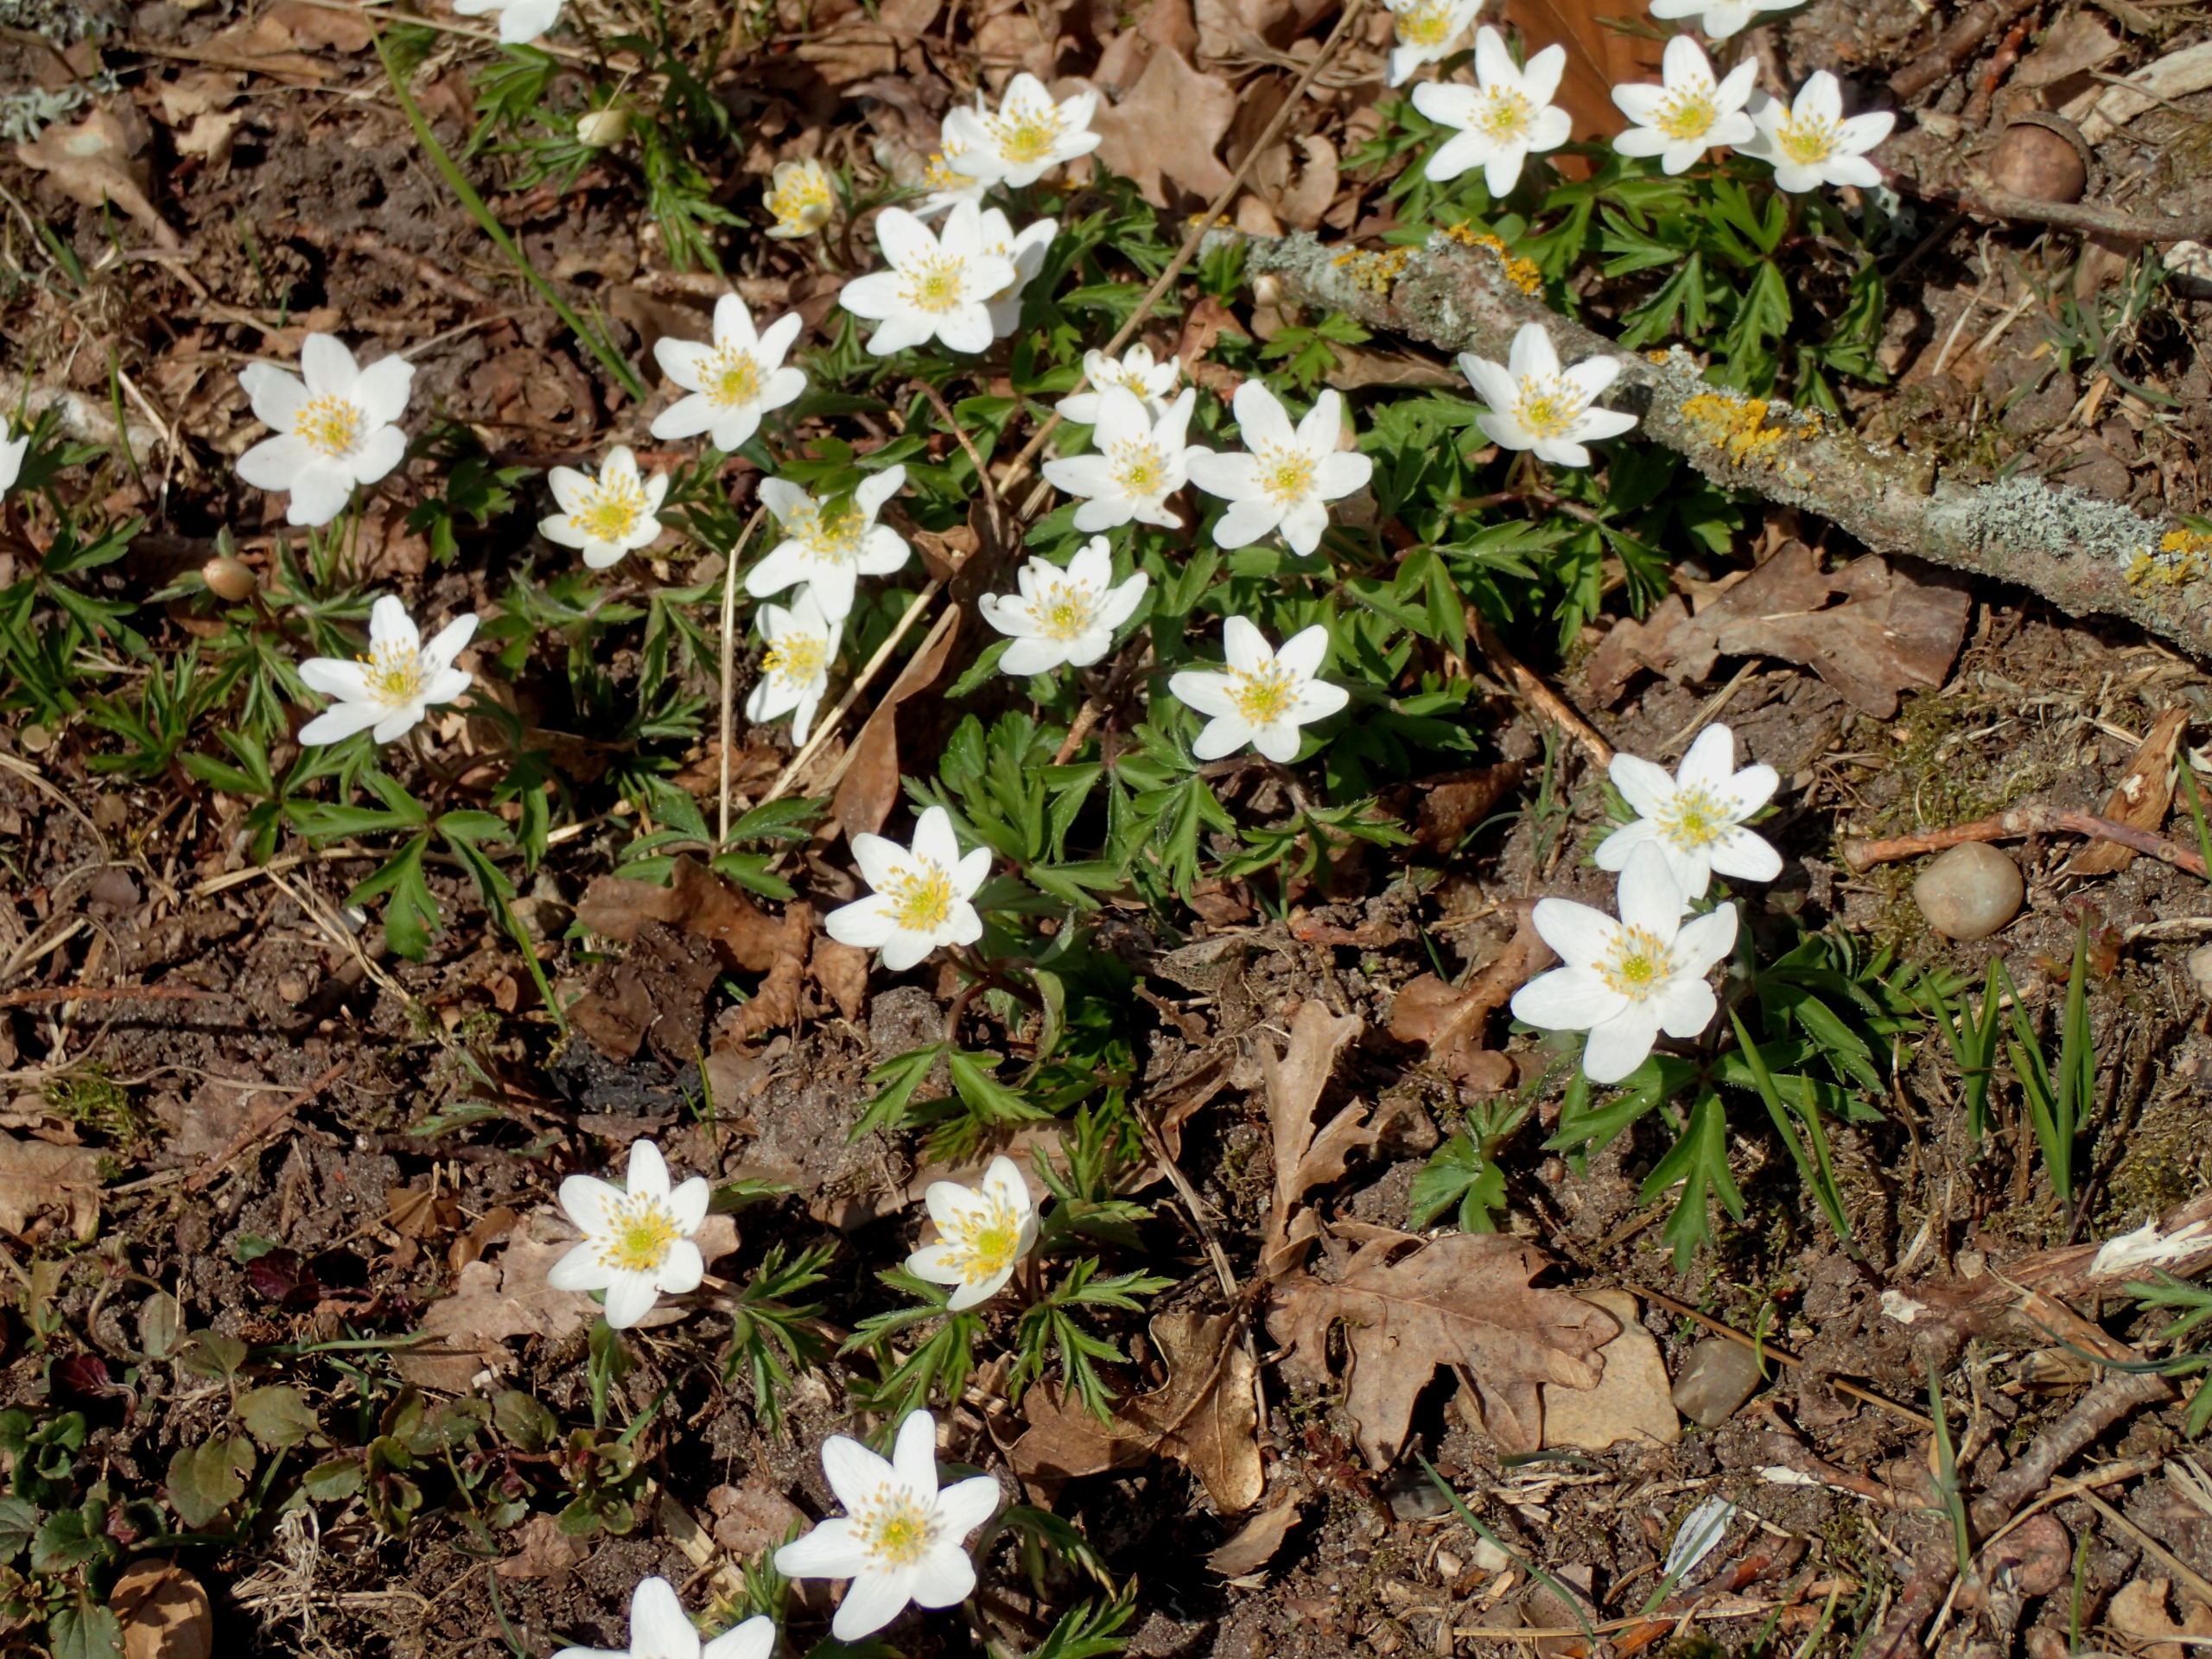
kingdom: Plantae
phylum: Tracheophyta
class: Magnoliopsida
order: Ranunculales
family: Ranunculaceae
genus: Anemone
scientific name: Anemone nemorosa
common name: Hvid anemone
